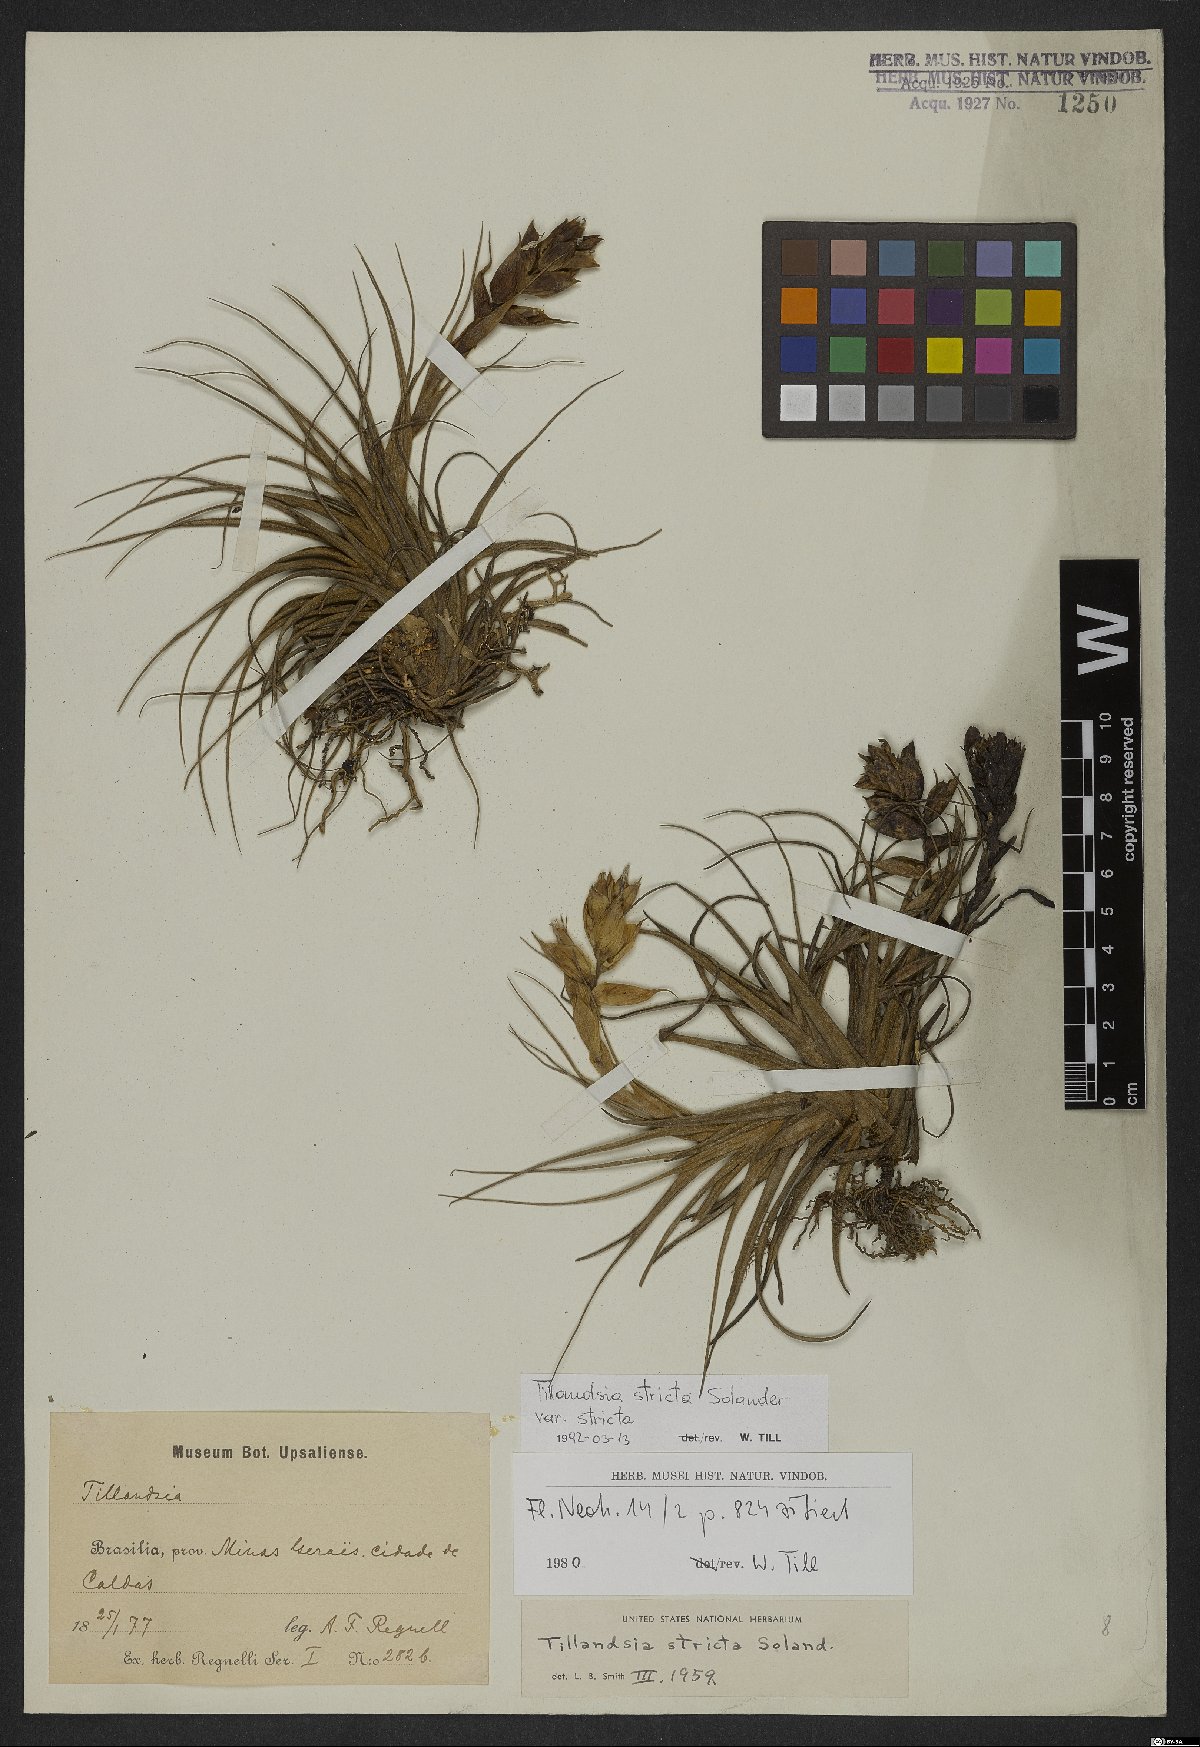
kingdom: Plantae
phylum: Tracheophyta
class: Liliopsida
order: Poales
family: Bromeliaceae
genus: Tillandsia
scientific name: Tillandsia stricta
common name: Airplant
